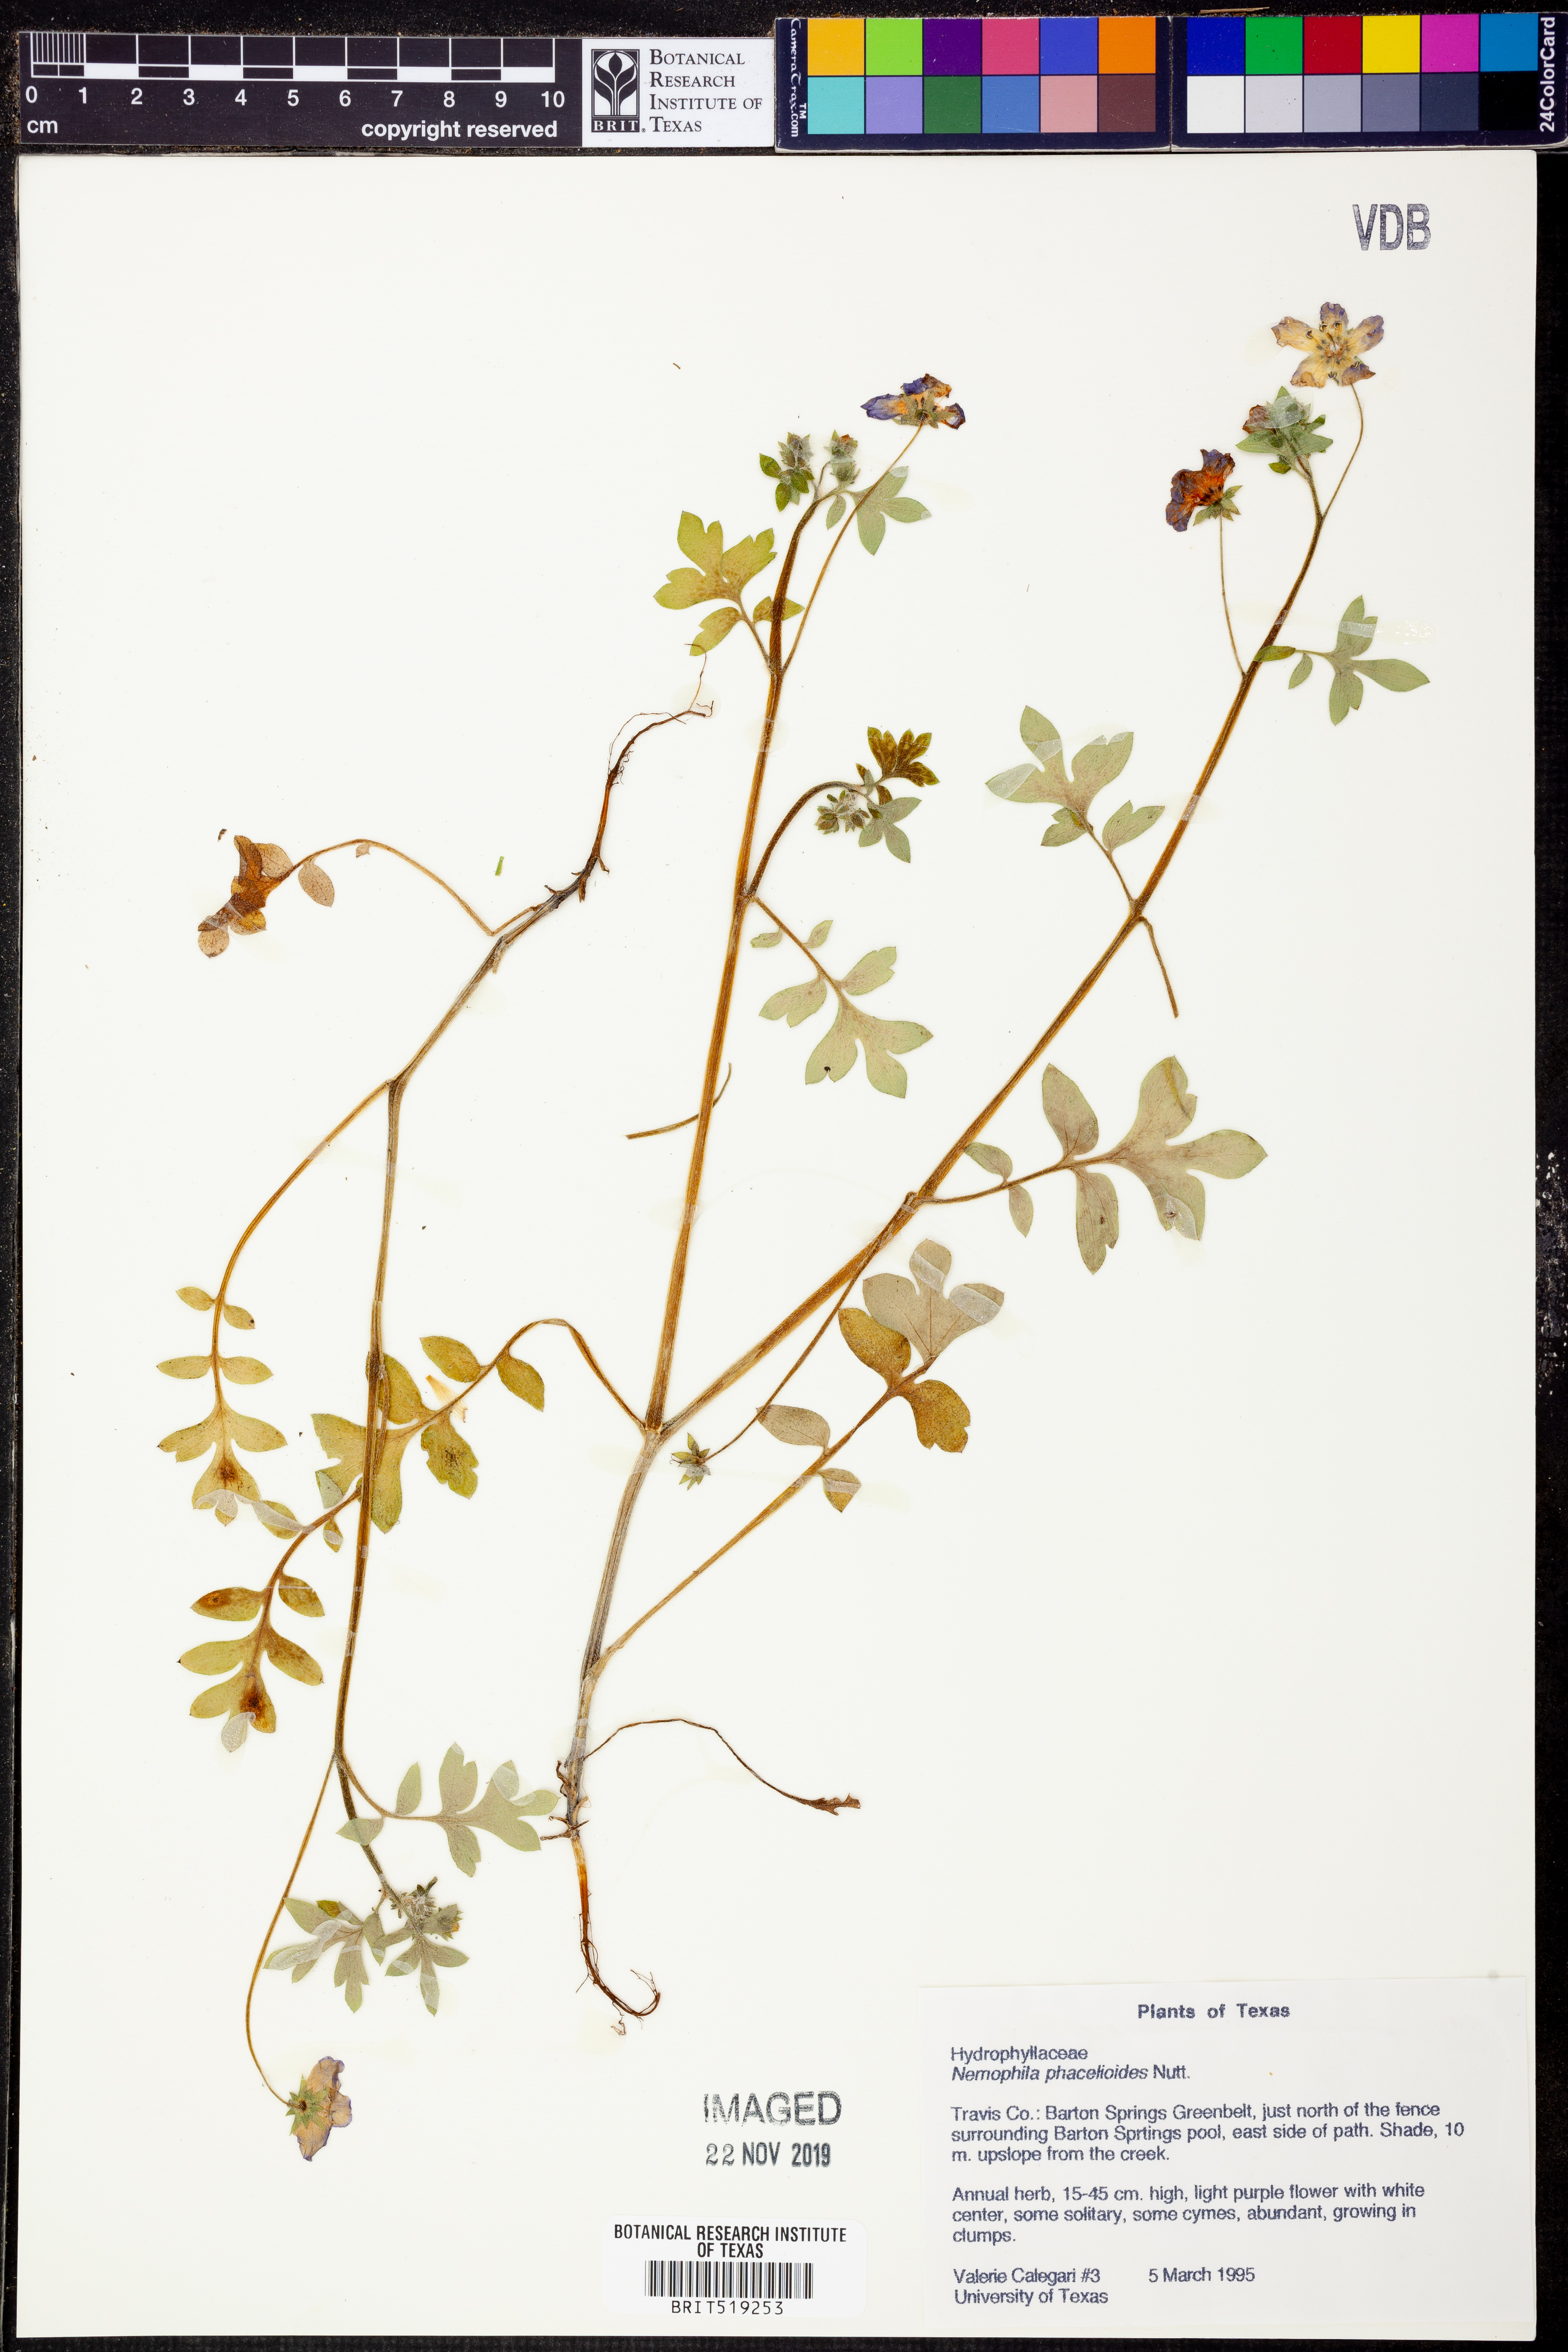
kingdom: Plantae
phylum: Tracheophyta
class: Magnoliopsida
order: Boraginales
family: Hydrophyllaceae
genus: Nemophila
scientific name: Nemophila phacelioides
